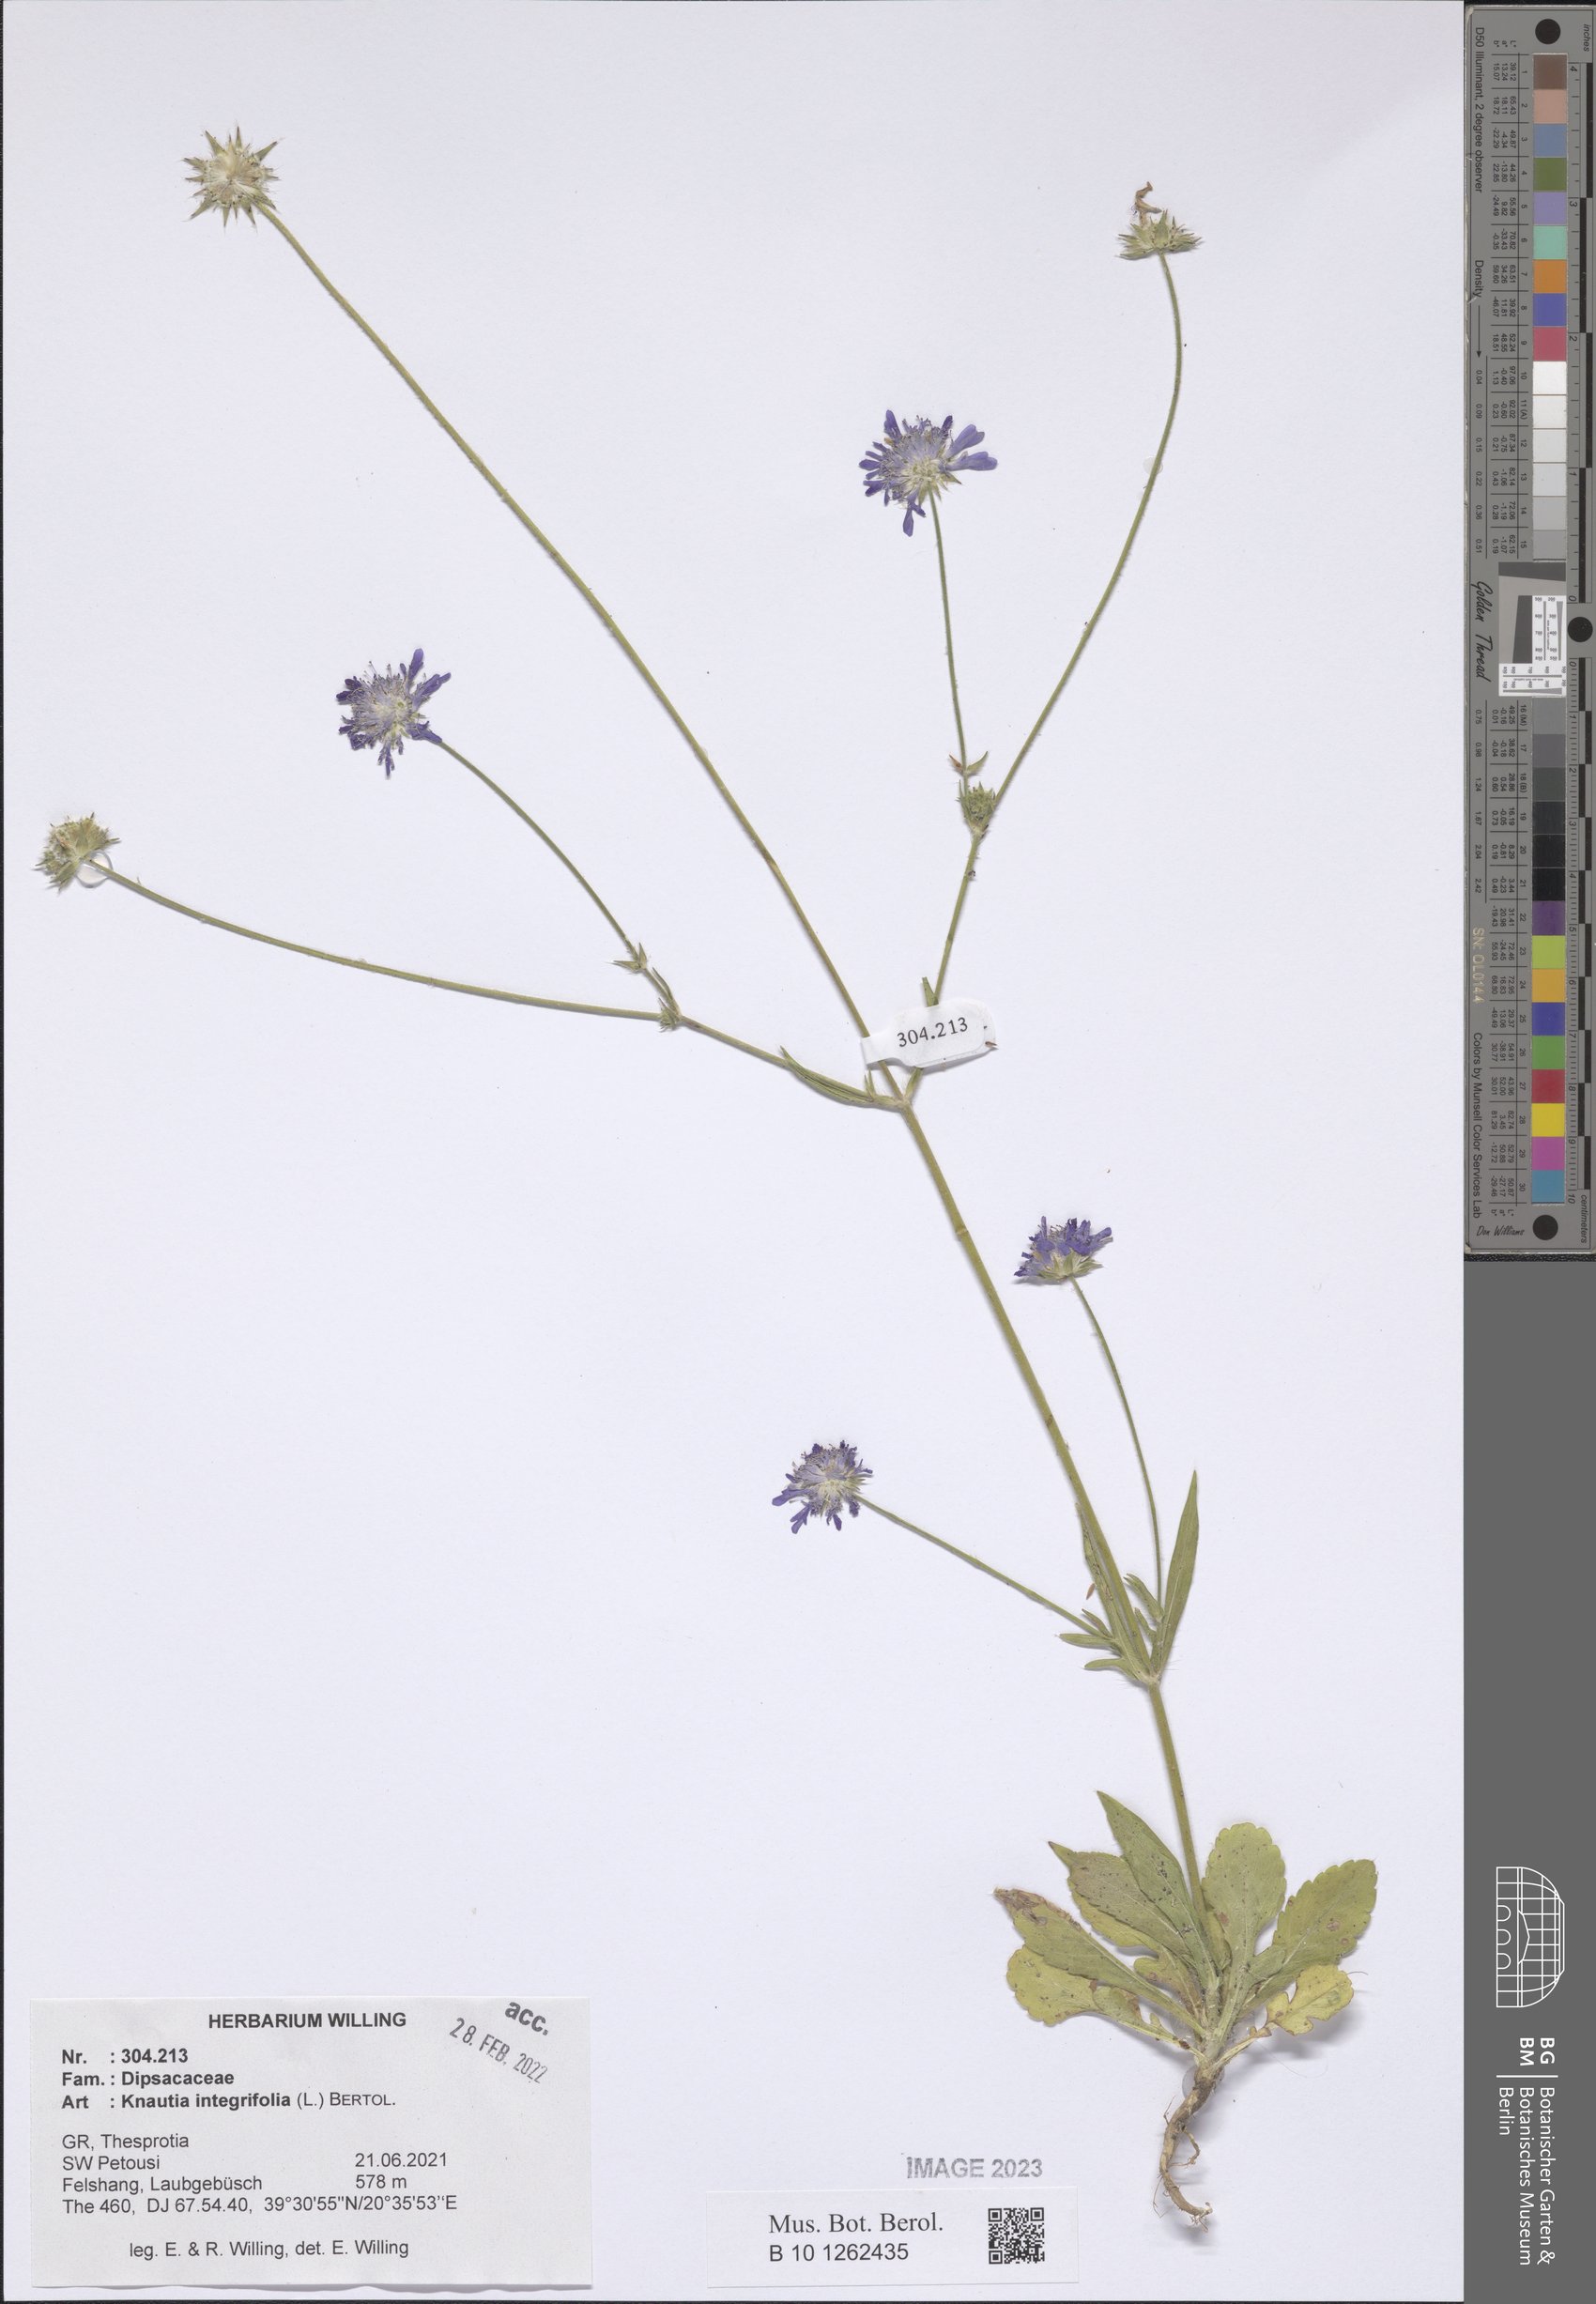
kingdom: Plantae
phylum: Tracheophyta
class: Magnoliopsida
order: Dipsacales
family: Caprifoliaceae
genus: Knautia
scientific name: Knautia integrifolia
